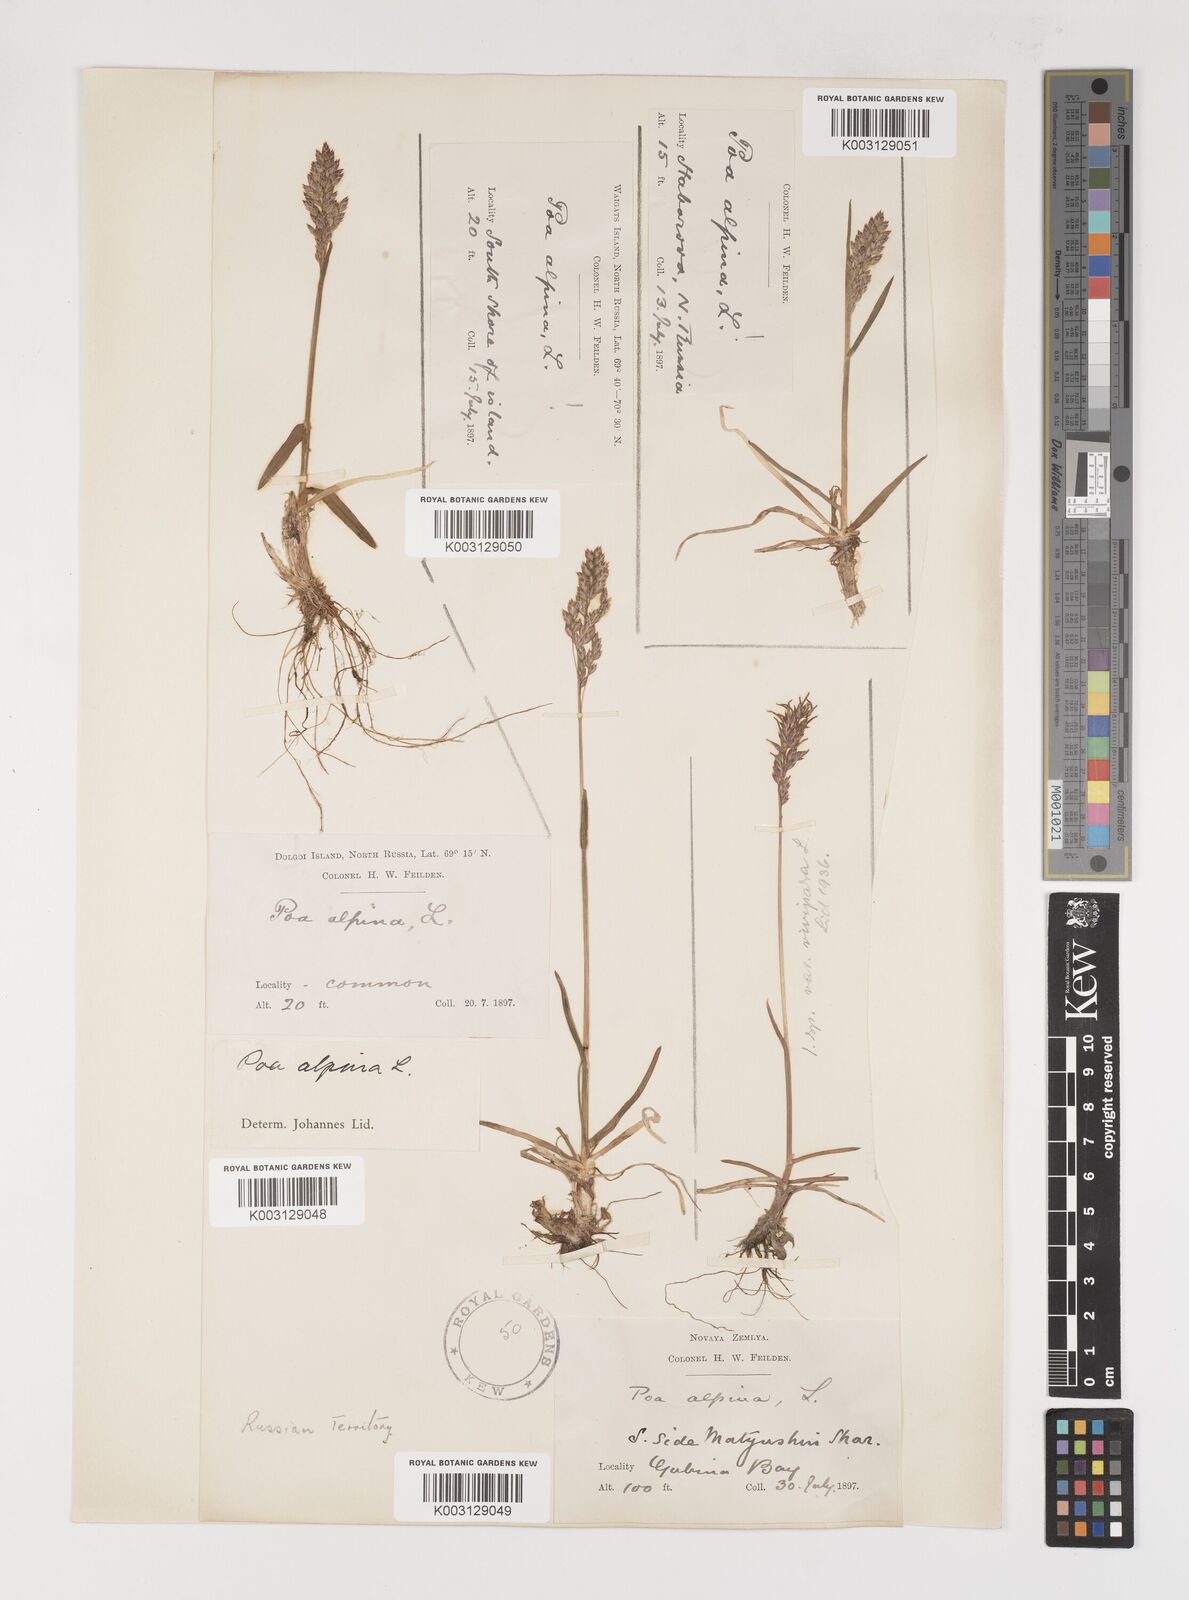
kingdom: Plantae
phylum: Tracheophyta
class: Liliopsida
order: Poales
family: Poaceae
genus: Poa
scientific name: Poa alpina
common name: Alpine bluegrass
